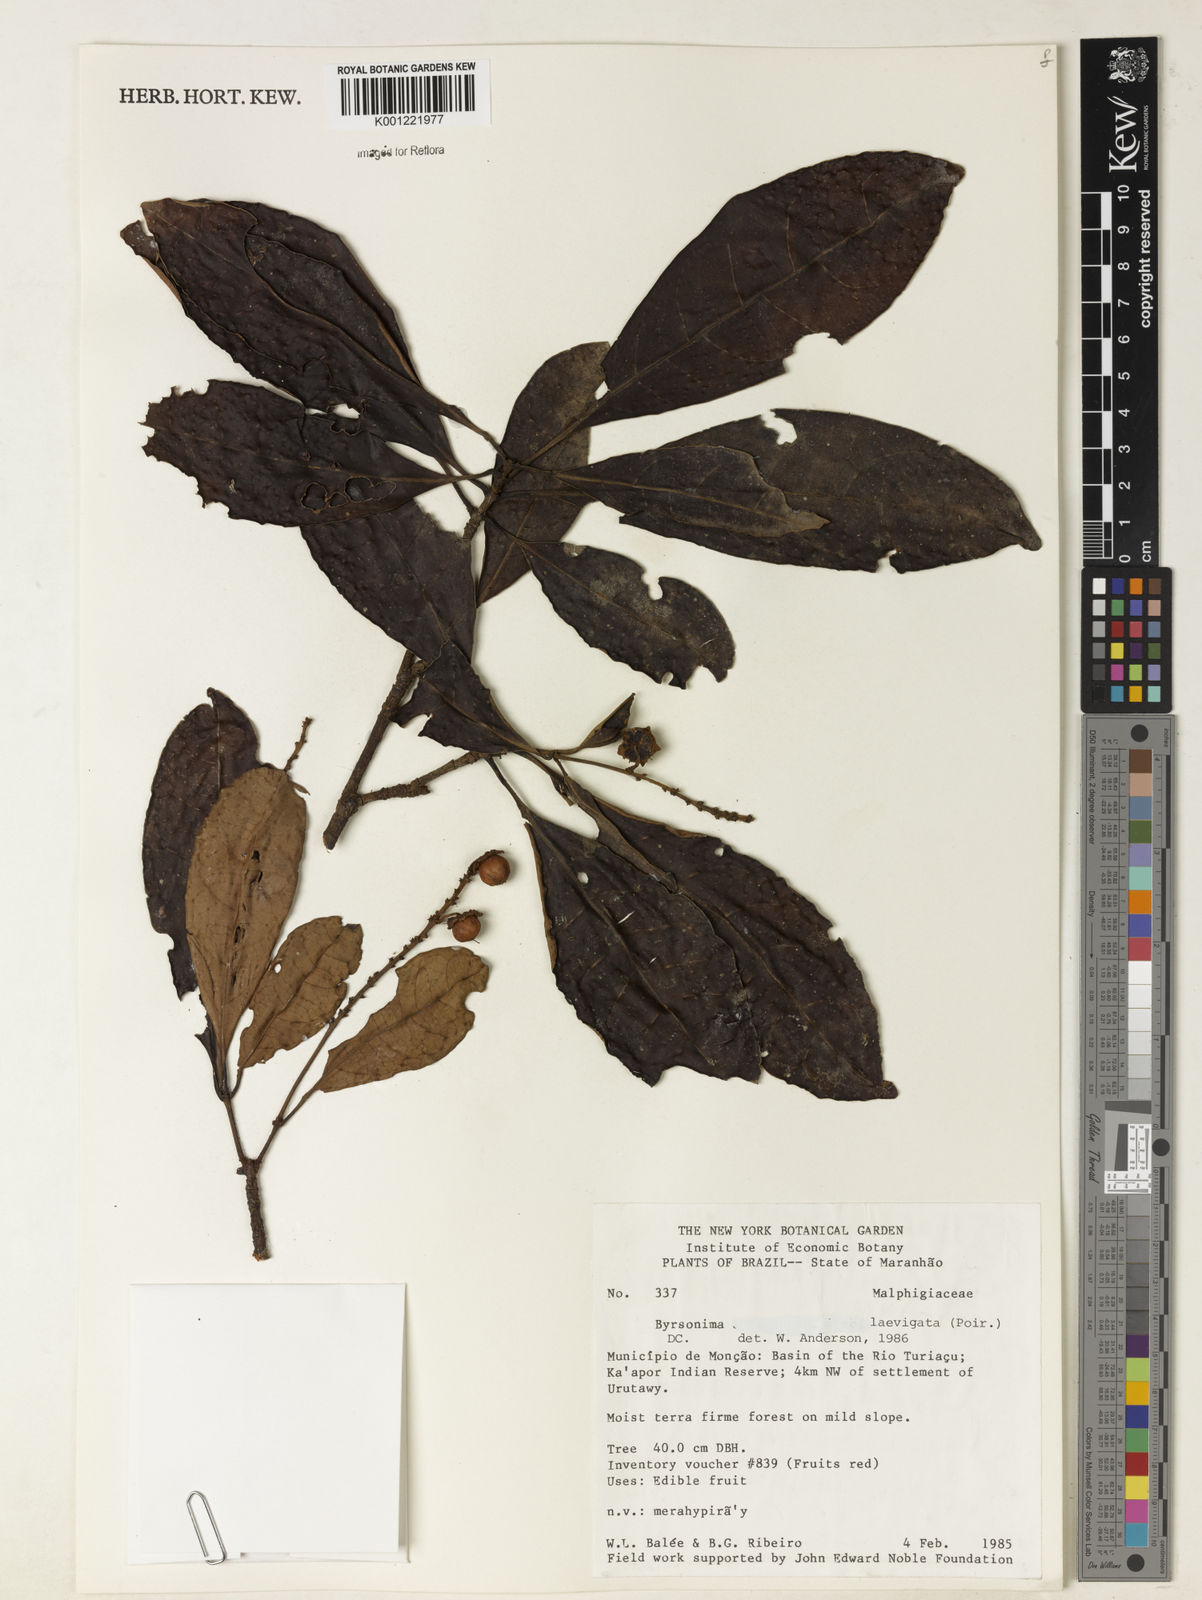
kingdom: Plantae
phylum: Tracheophyta
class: Magnoliopsida
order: Malpighiales
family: Malpighiaceae
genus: Byrsonima
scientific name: Byrsonima laevigata
